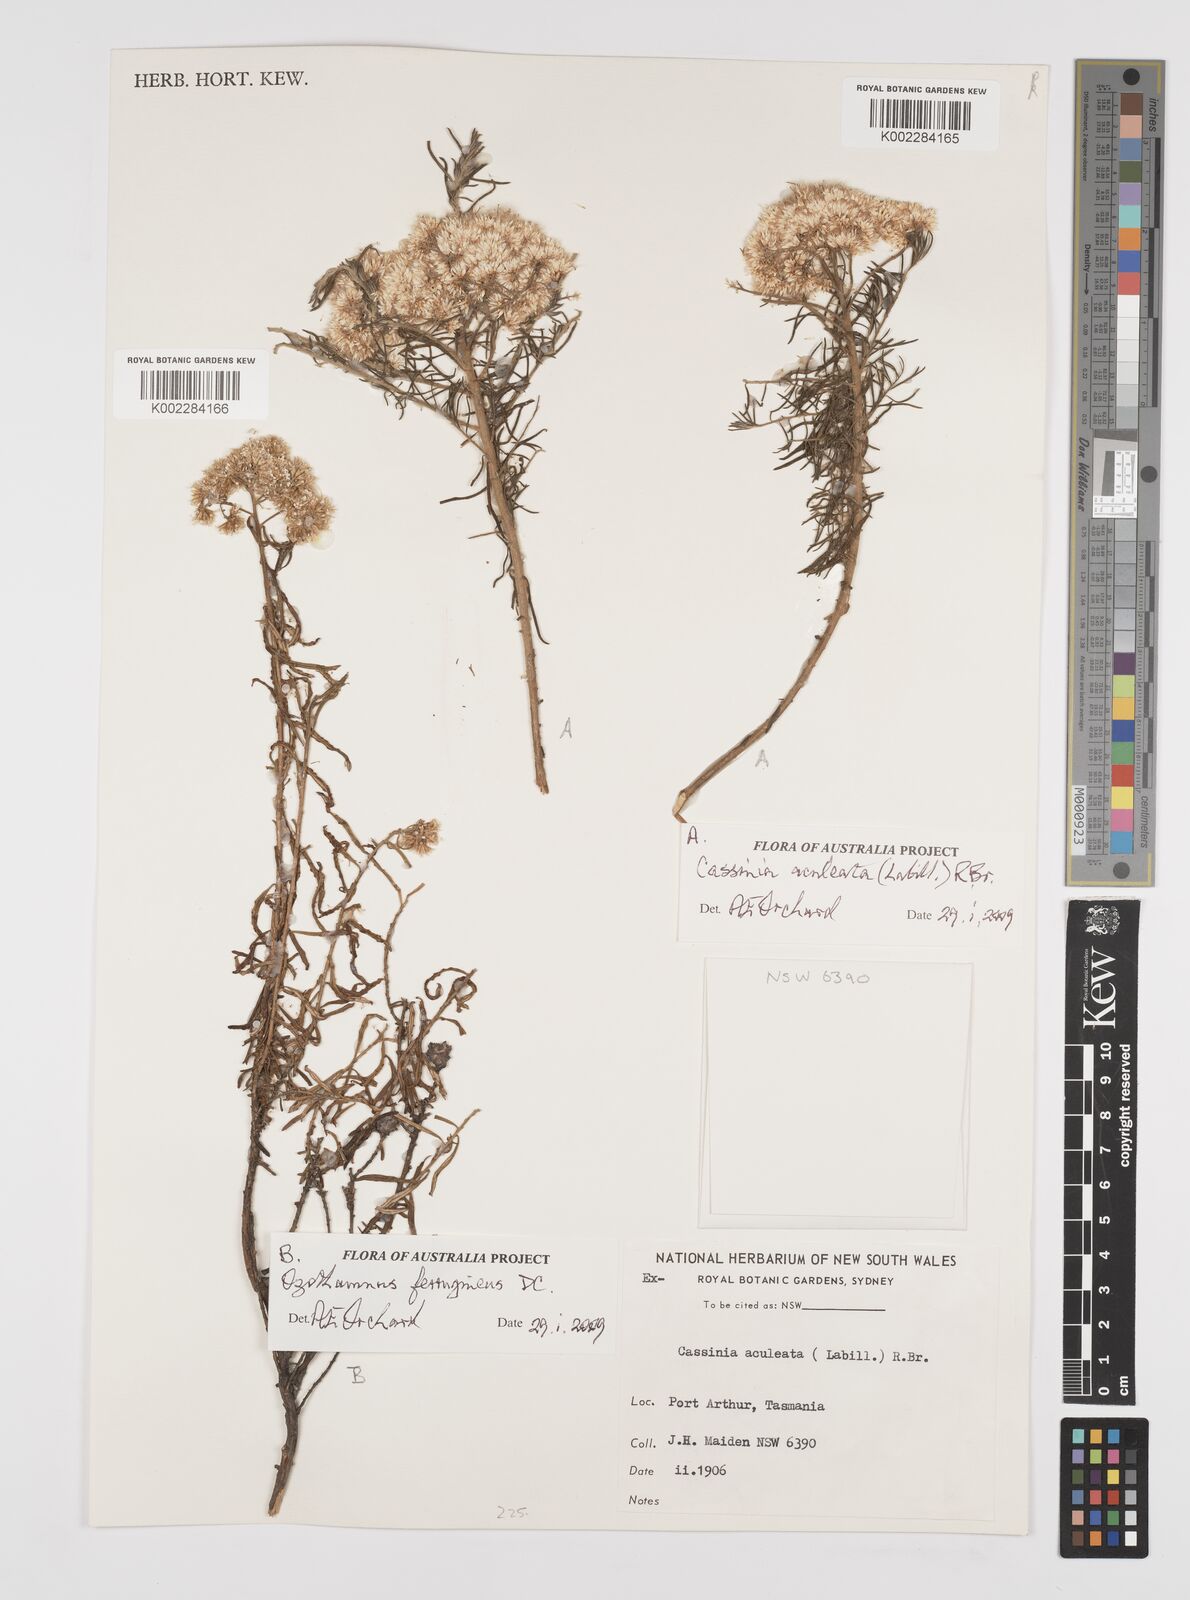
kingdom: Plantae
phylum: Tracheophyta
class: Magnoliopsida
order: Asterales
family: Asteraceae
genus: Cassinia
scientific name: Cassinia aculeata
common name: Australian tauhinu
